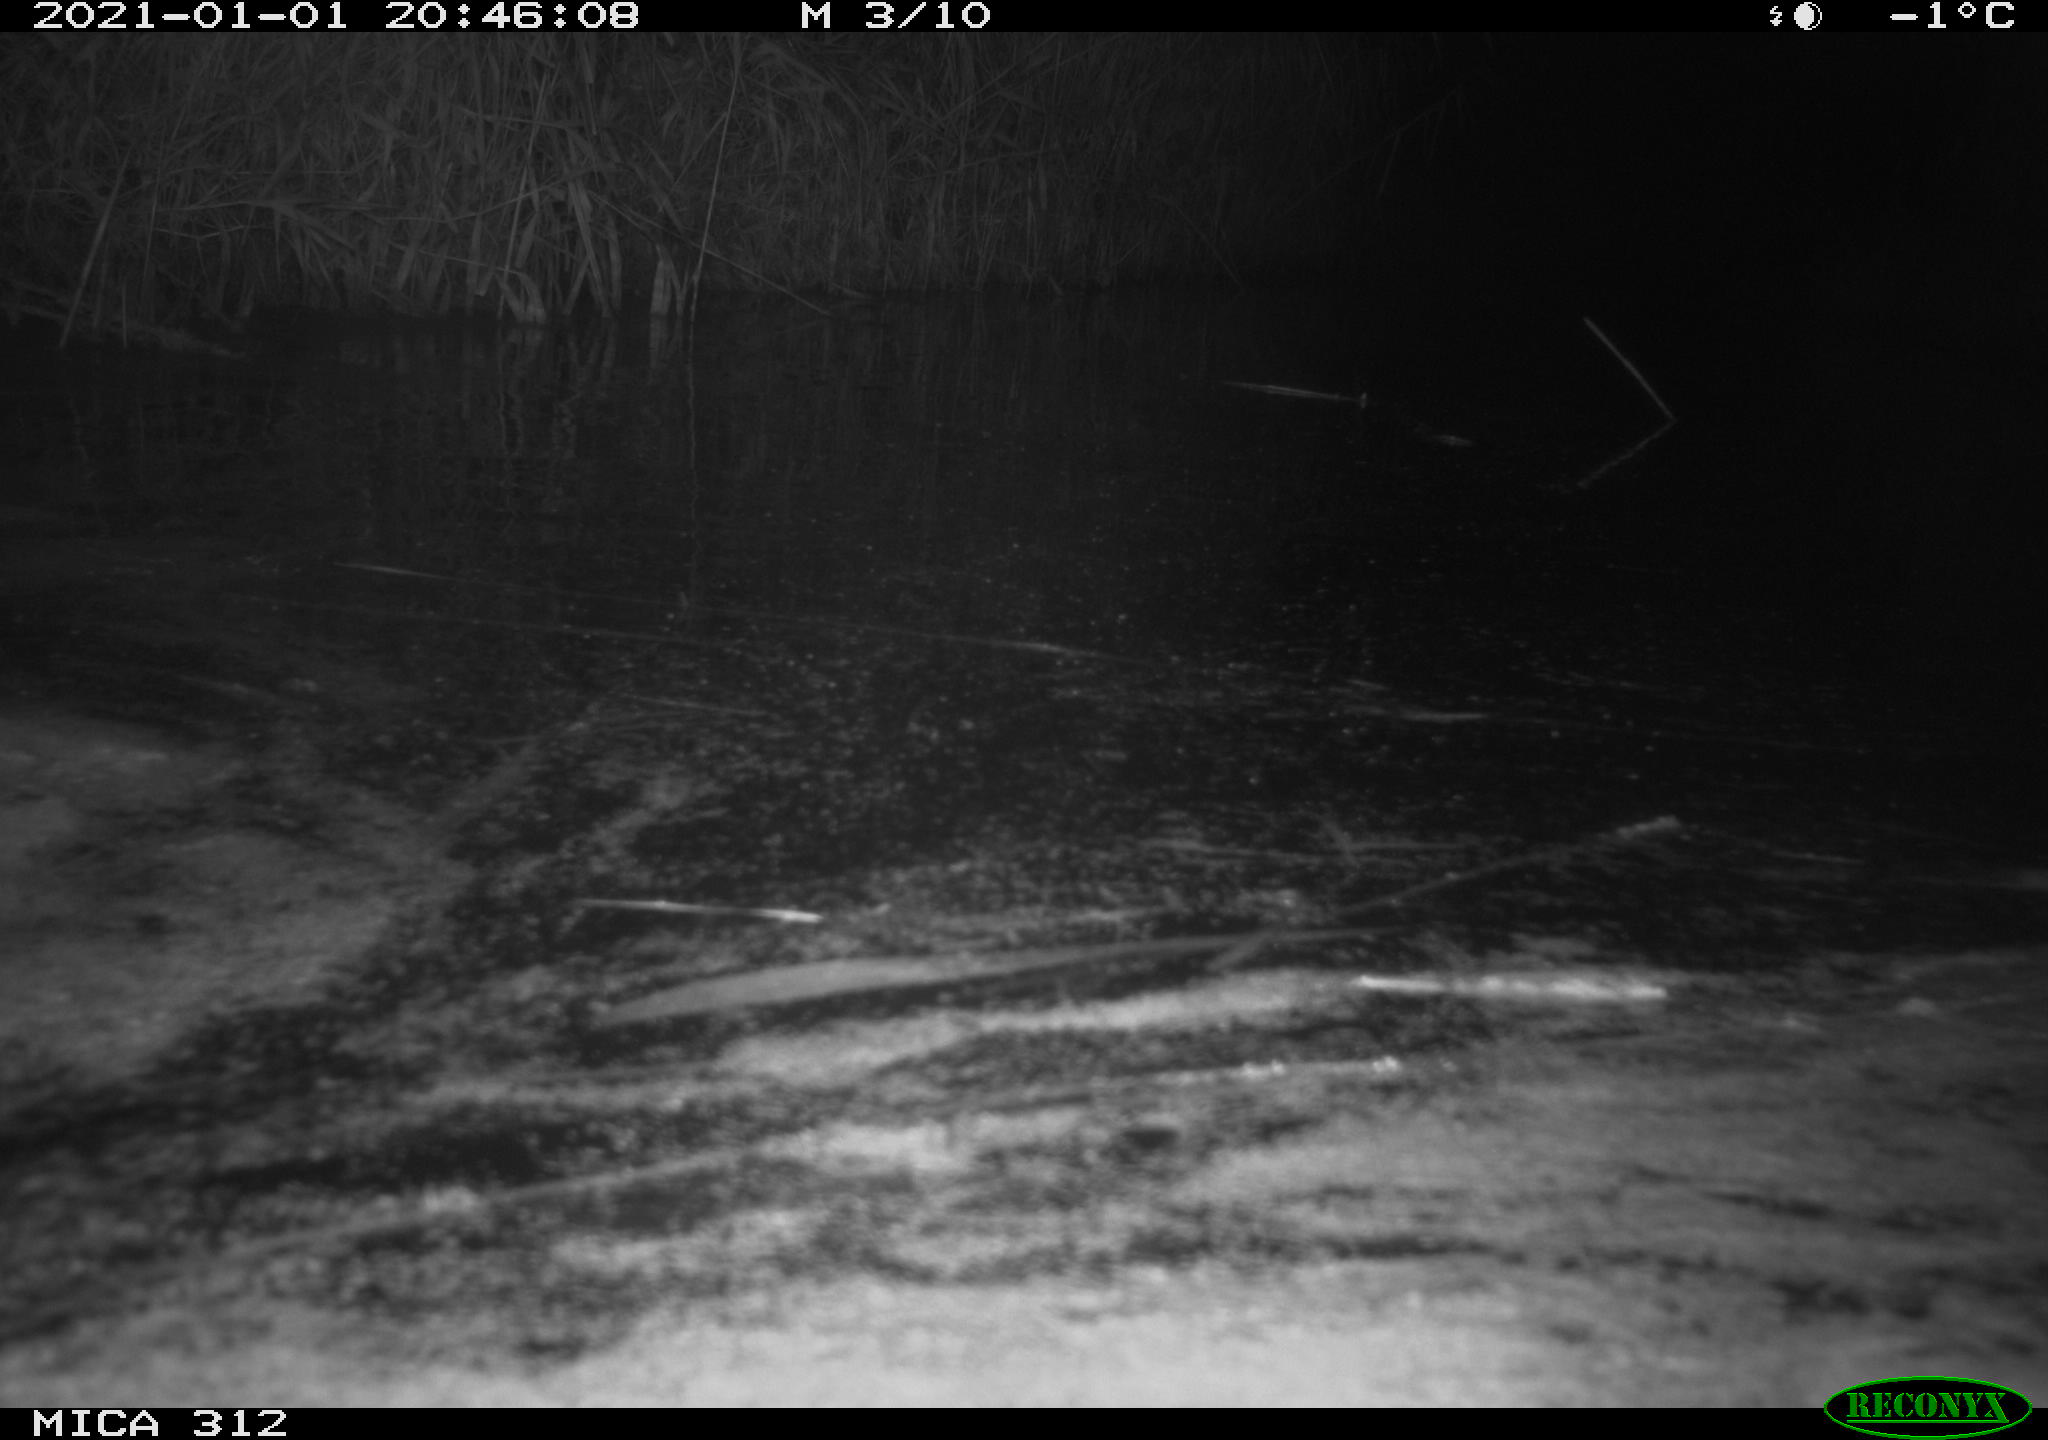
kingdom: Animalia
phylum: Chordata
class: Mammalia
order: Rodentia
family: Muridae
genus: Rattus
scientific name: Rattus norvegicus
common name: Brown rat
